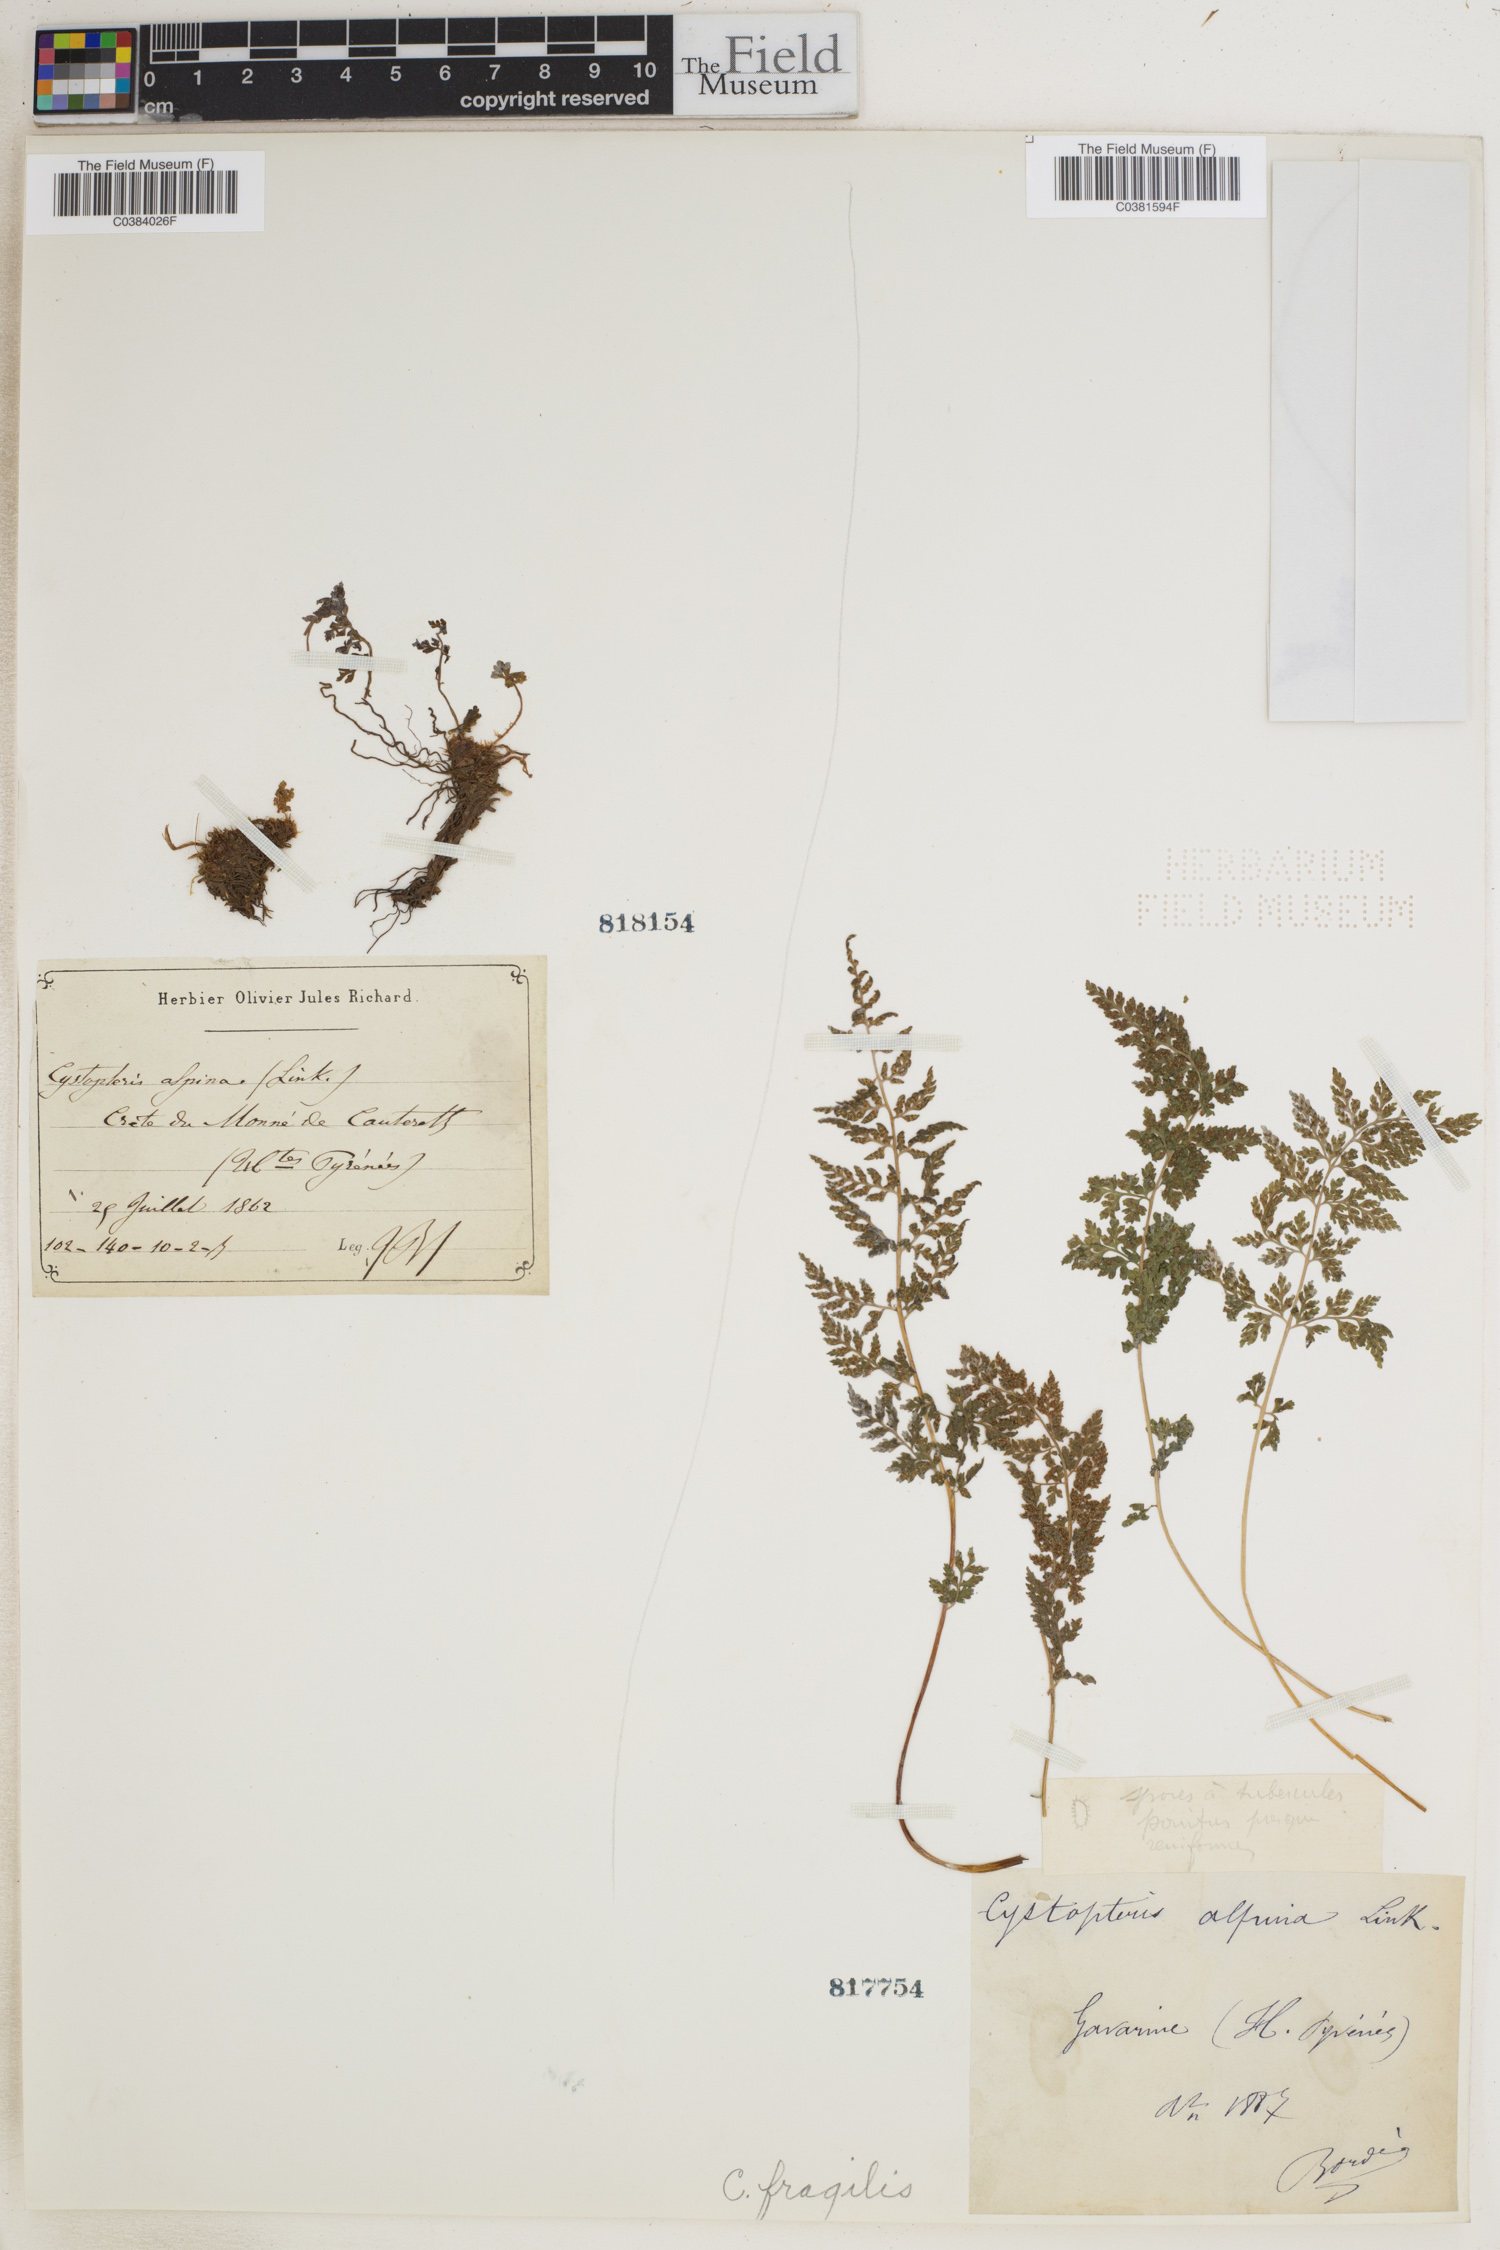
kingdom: Plantae
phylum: Tracheophyta
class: Polypodiopsida
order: Polypodiales
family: Cystopteridaceae
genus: Cystopteris
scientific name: Cystopteris fragilis
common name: Brittle bladder fern
